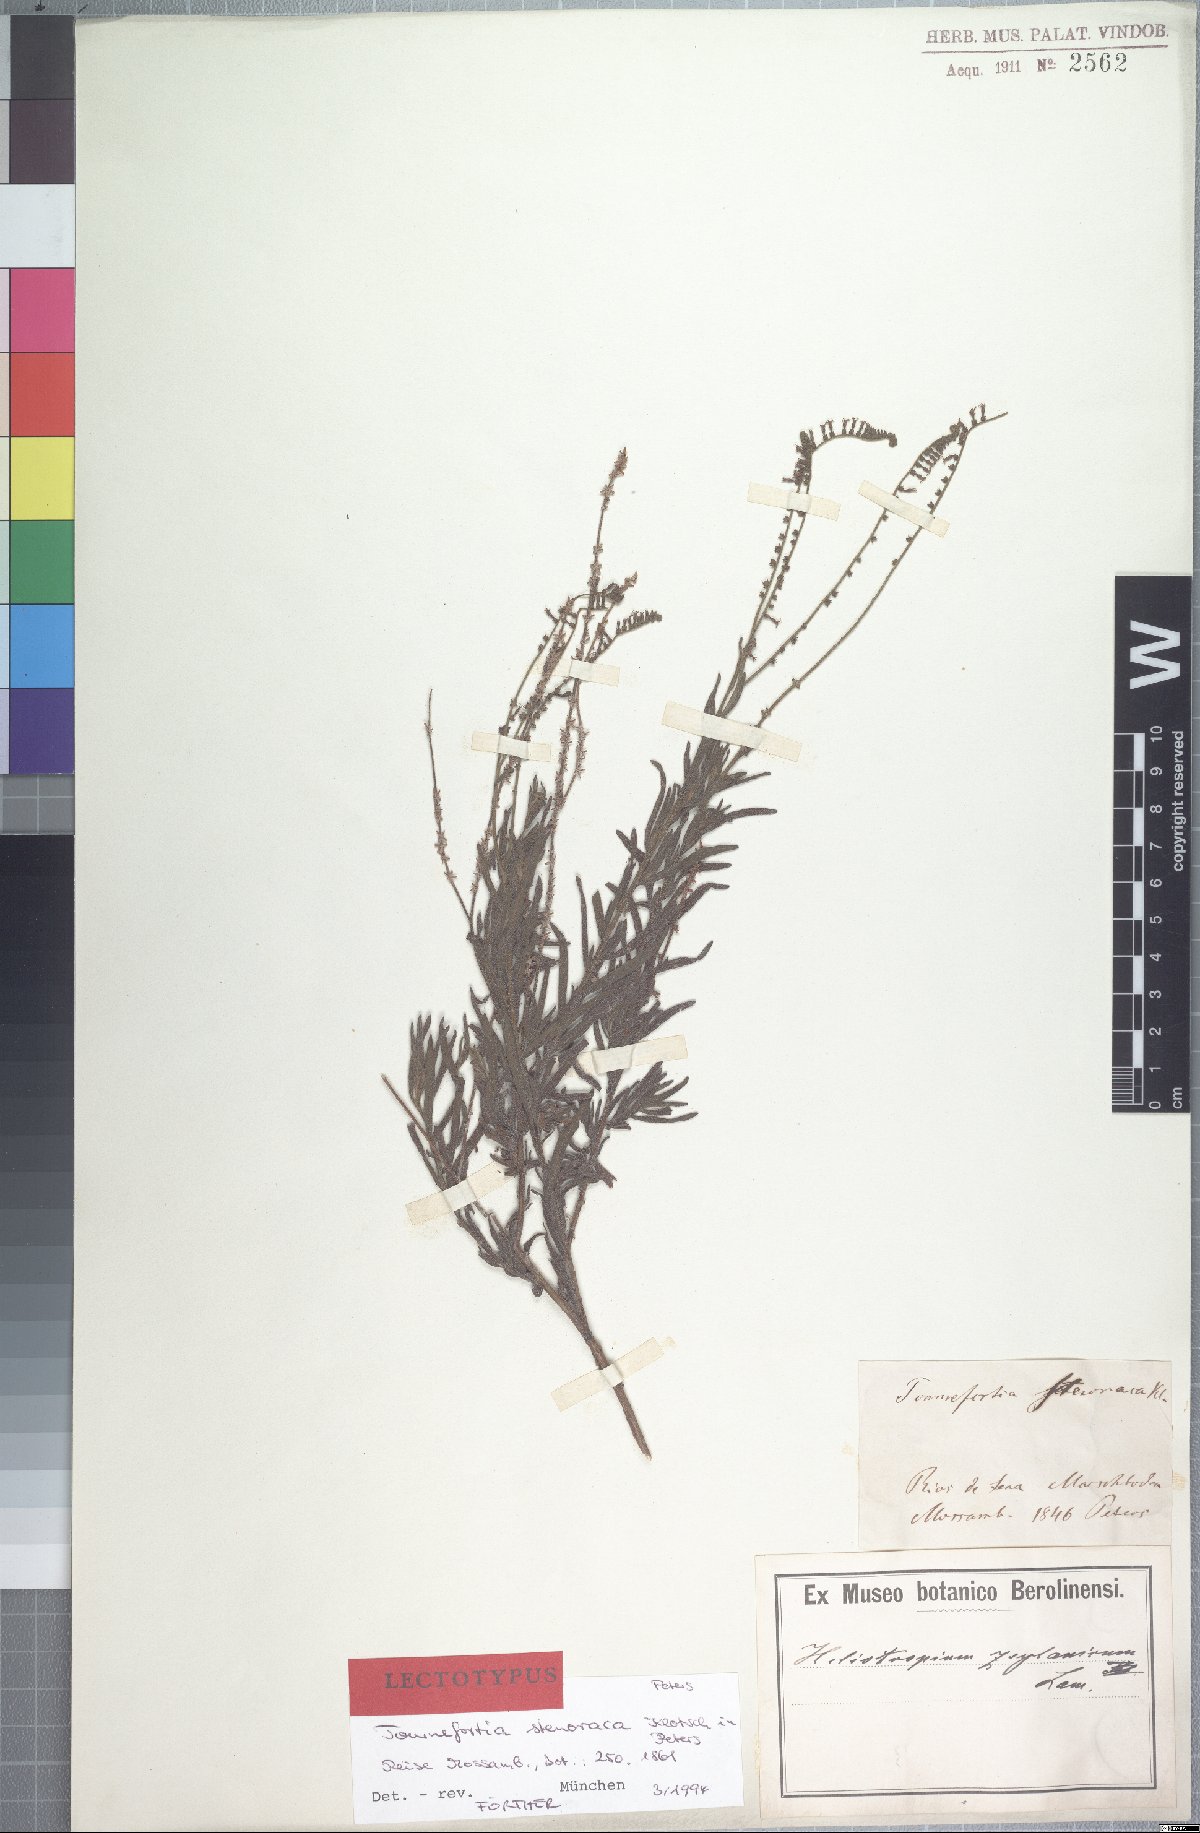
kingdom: Plantae
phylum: Tracheophyta
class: Magnoliopsida
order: Boraginales
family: Heliotropiaceae
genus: Heliotropium
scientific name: Heliotropium zeylanicum
